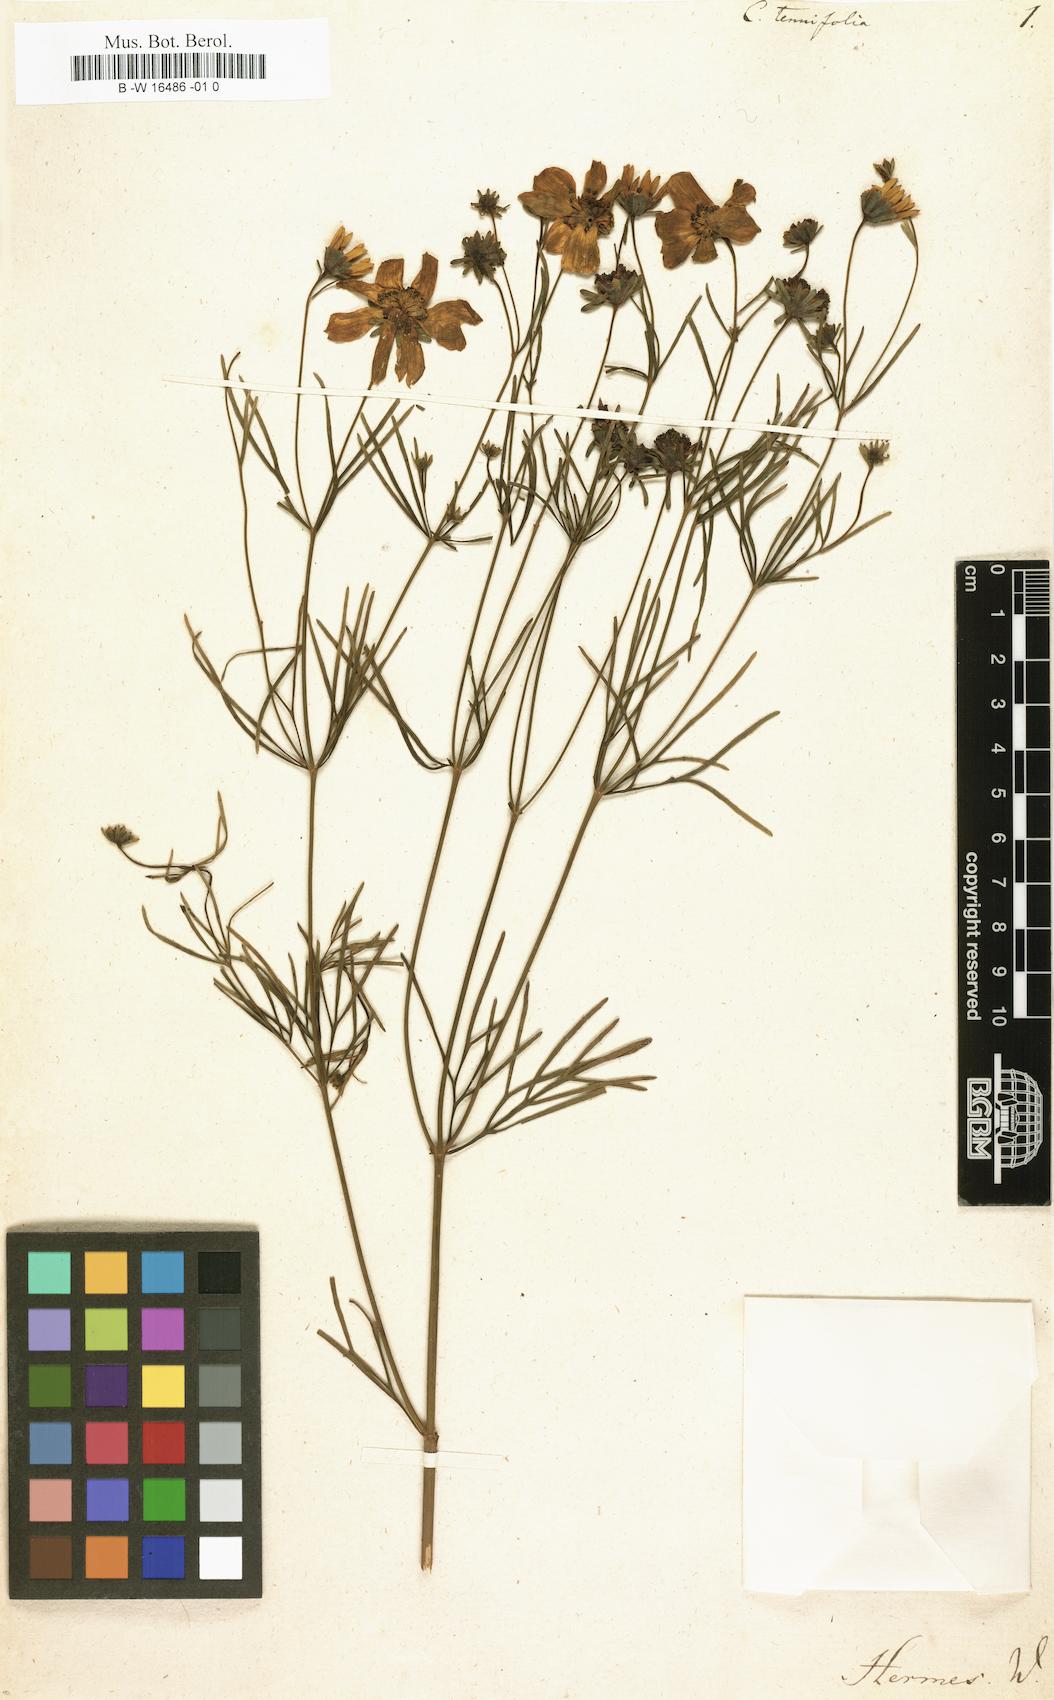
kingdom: Plantae
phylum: Tracheophyta
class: Magnoliopsida
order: Asterales
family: Asteraceae
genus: Coreopsis
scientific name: Coreopsis verticillata
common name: Whorled tickseed
